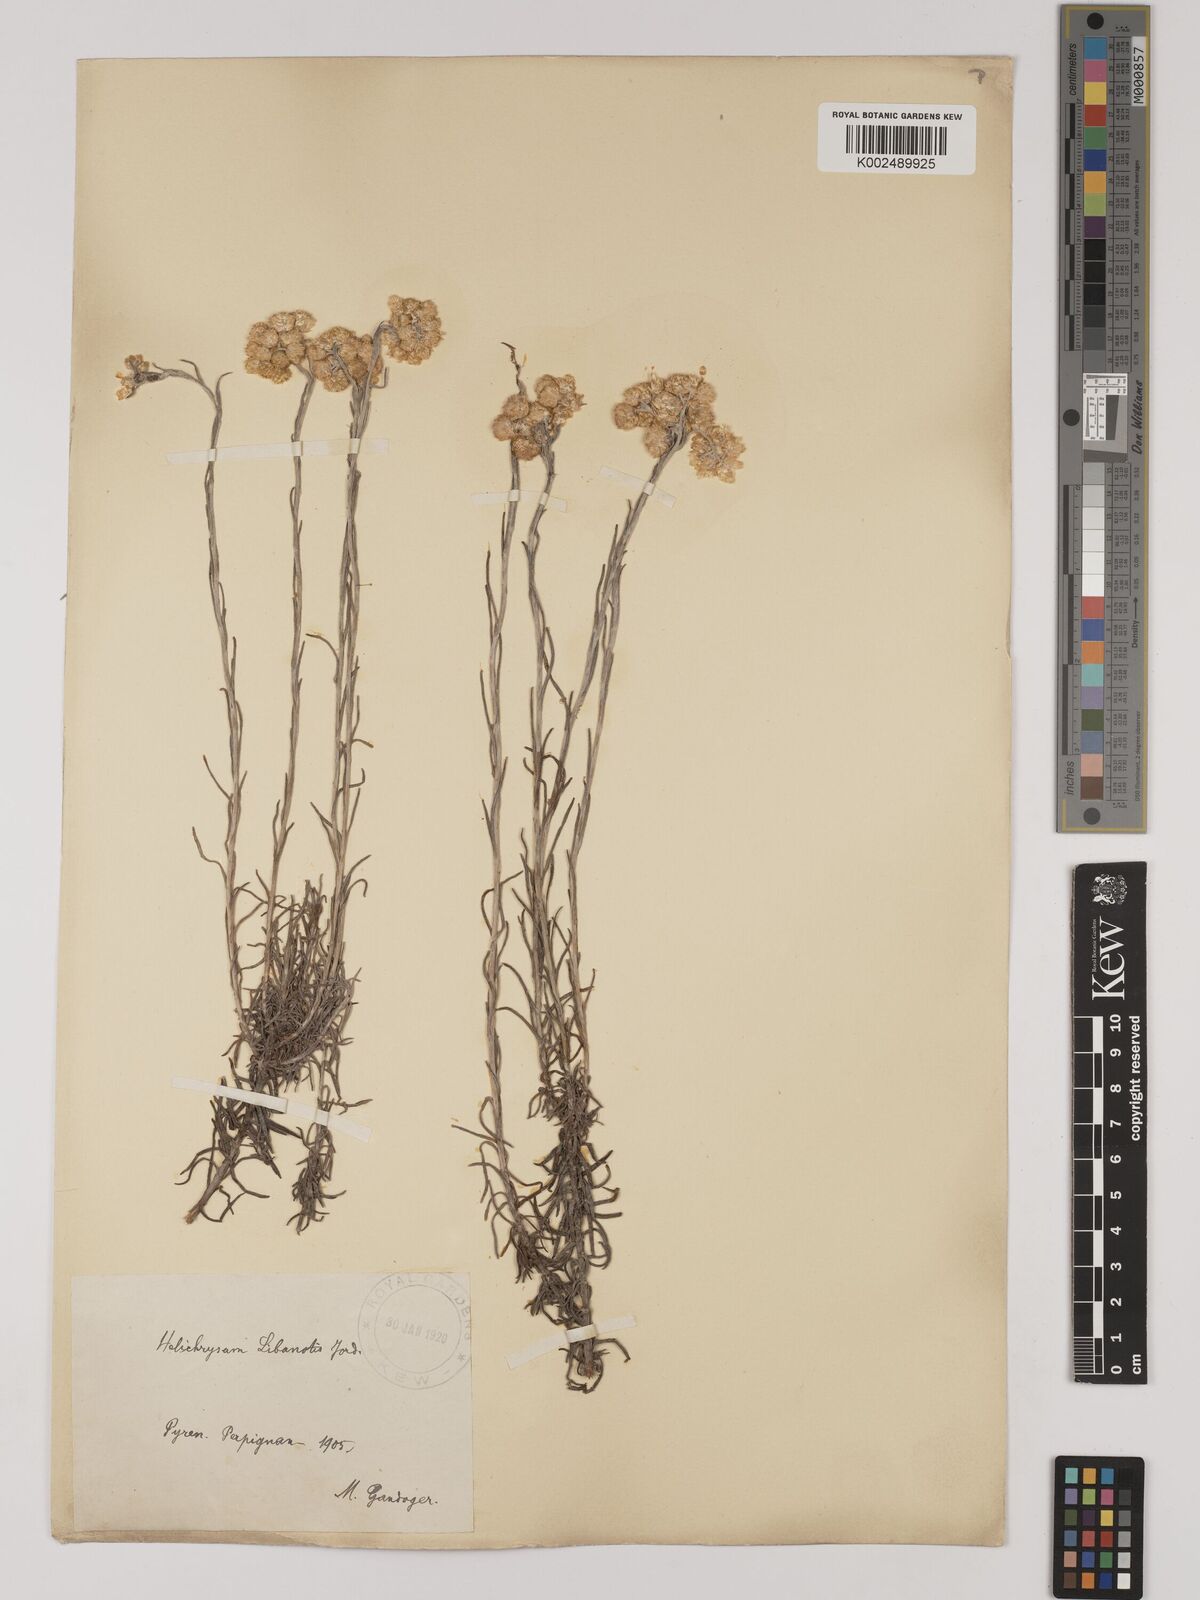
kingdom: Plantae
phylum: Tracheophyta
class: Magnoliopsida
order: Asterales
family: Asteraceae
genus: Helichrysum
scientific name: Helichrysum
